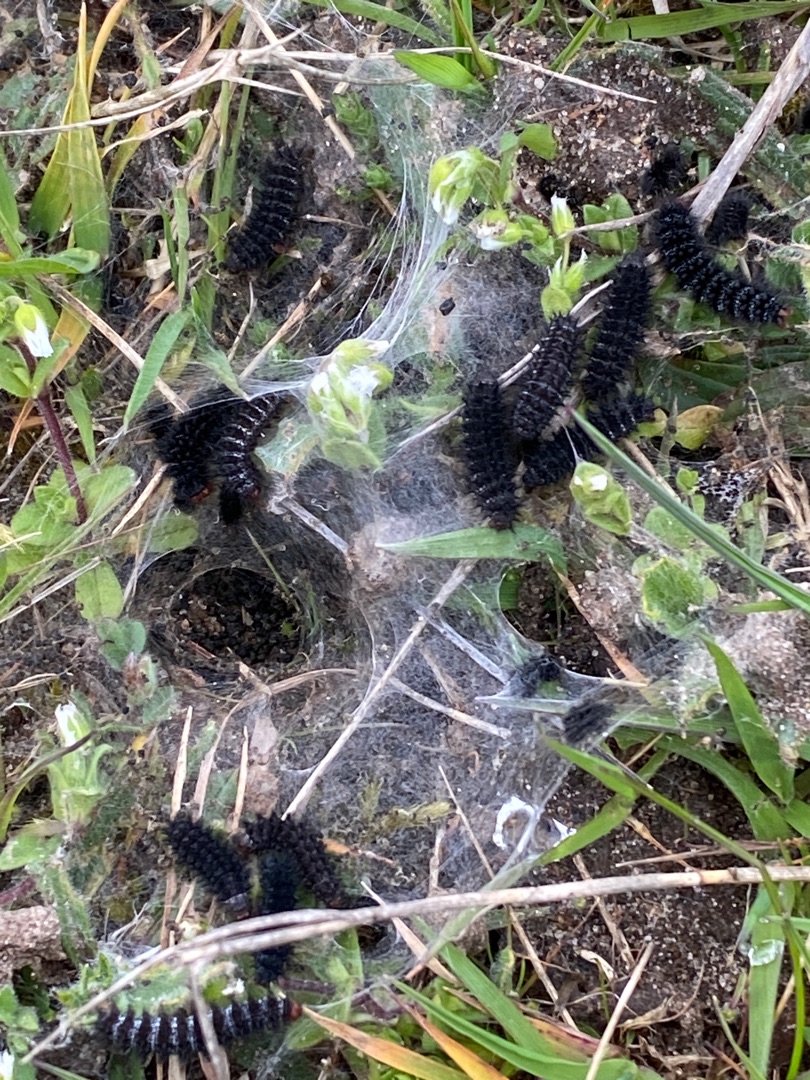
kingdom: Animalia
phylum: Arthropoda
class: Insecta
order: Lepidoptera
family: Nymphalidae
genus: Melitaea
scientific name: Melitaea cinxia
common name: Okkergul pletvinge
